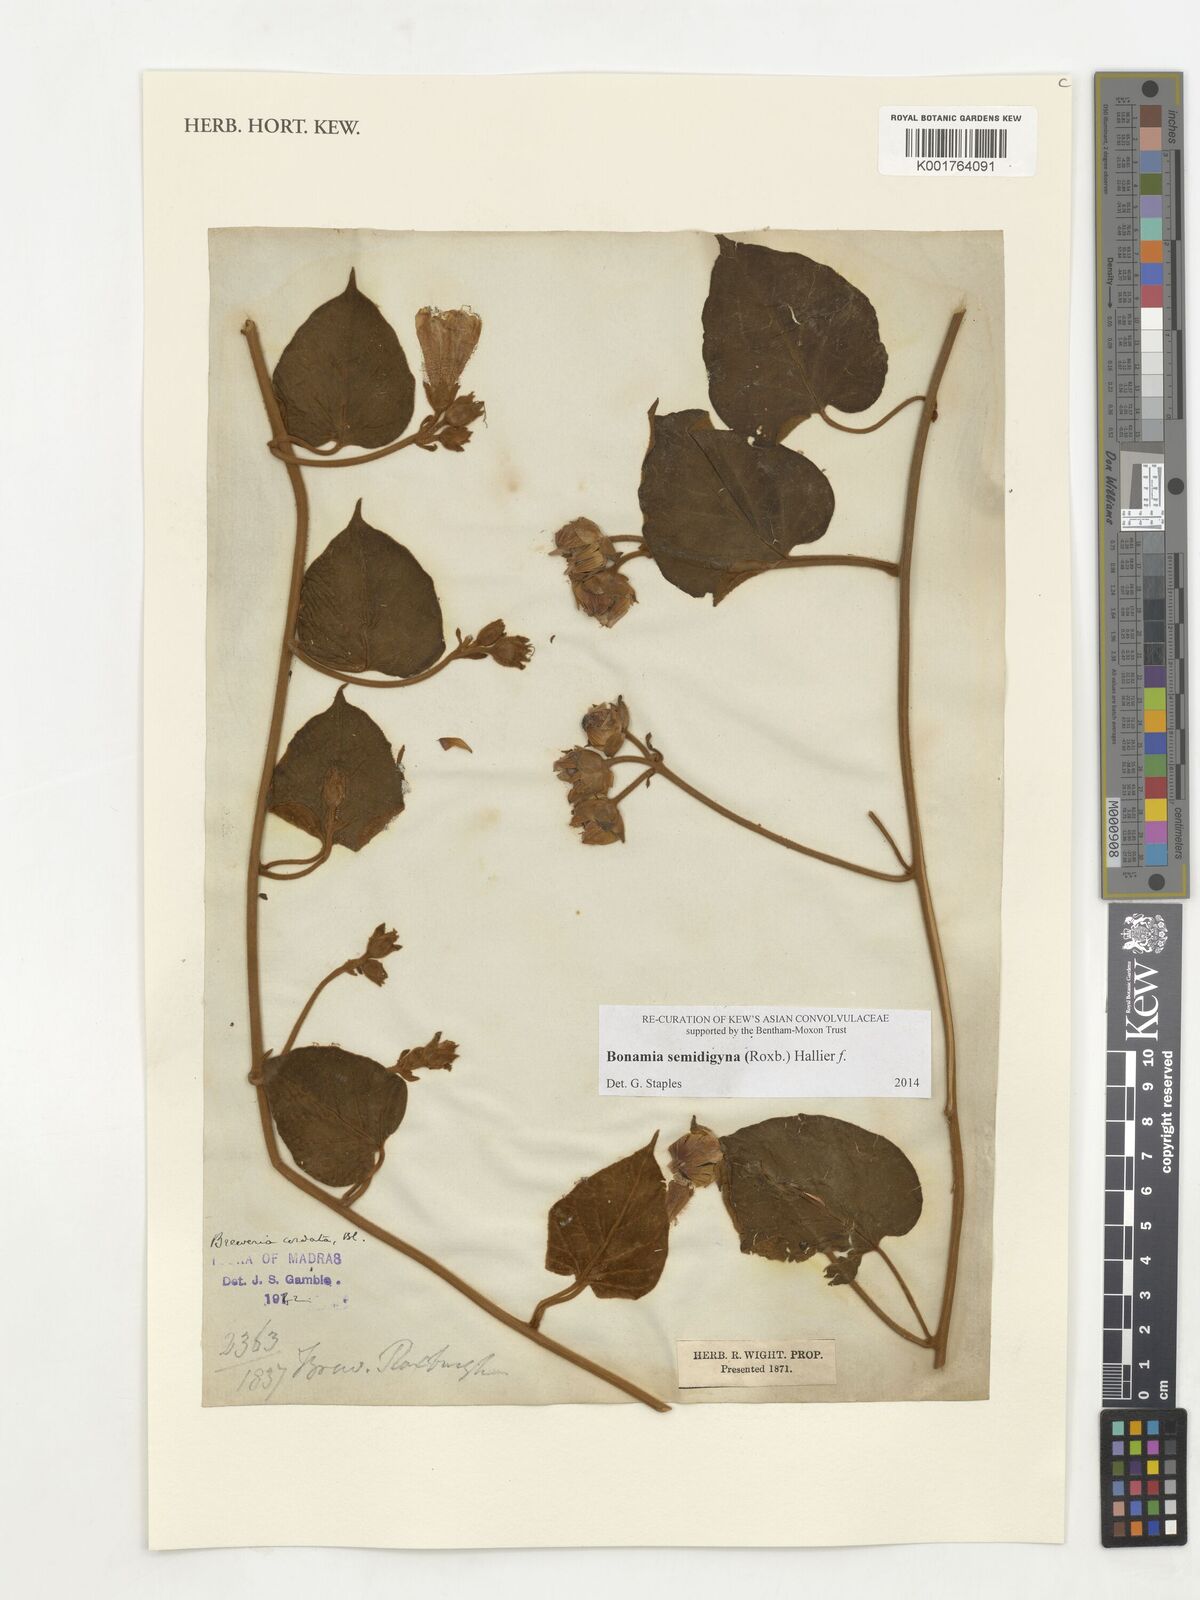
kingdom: Plantae
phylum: Tracheophyta
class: Magnoliopsida
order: Solanales
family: Convolvulaceae
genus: Bonamia
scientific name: Bonamia semidigyna
